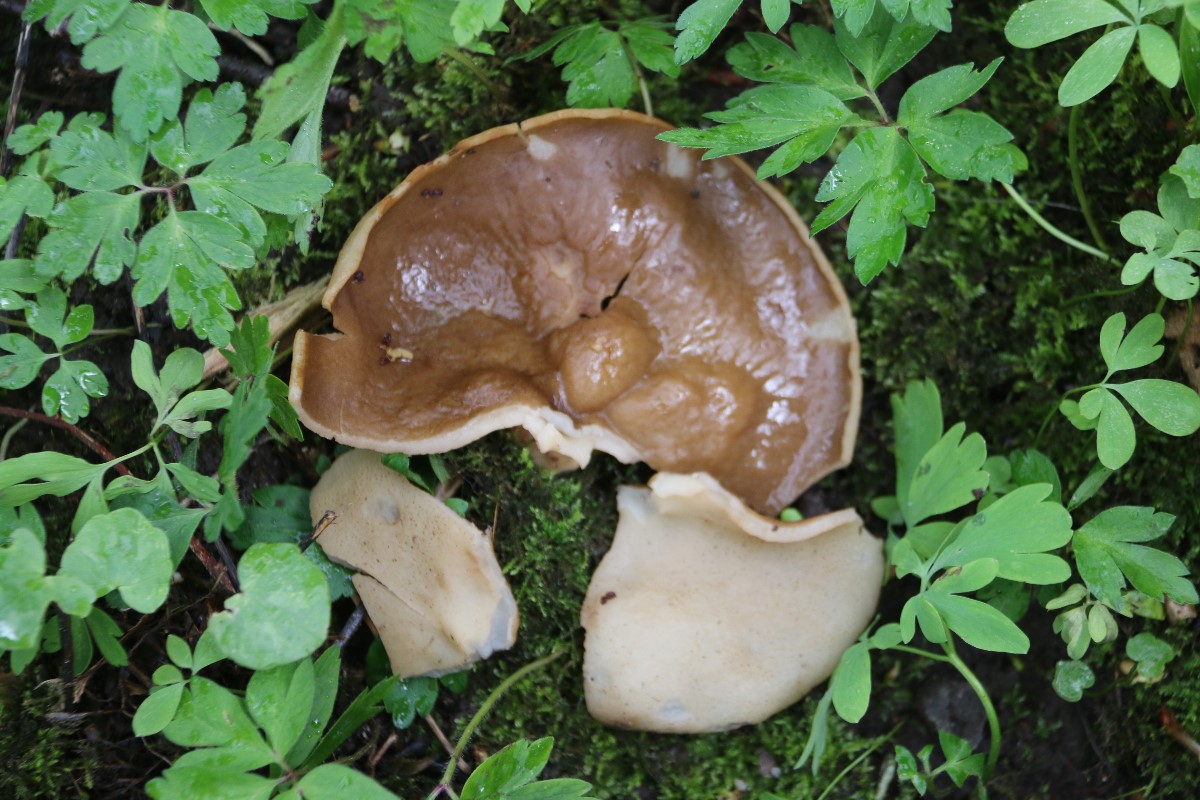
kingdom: Fungi
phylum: Ascomycota
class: Pezizomycetes
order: Pezizales
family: Morchellaceae
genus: Disciotis
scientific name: Disciotis venosa
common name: klor-bægermorkel
